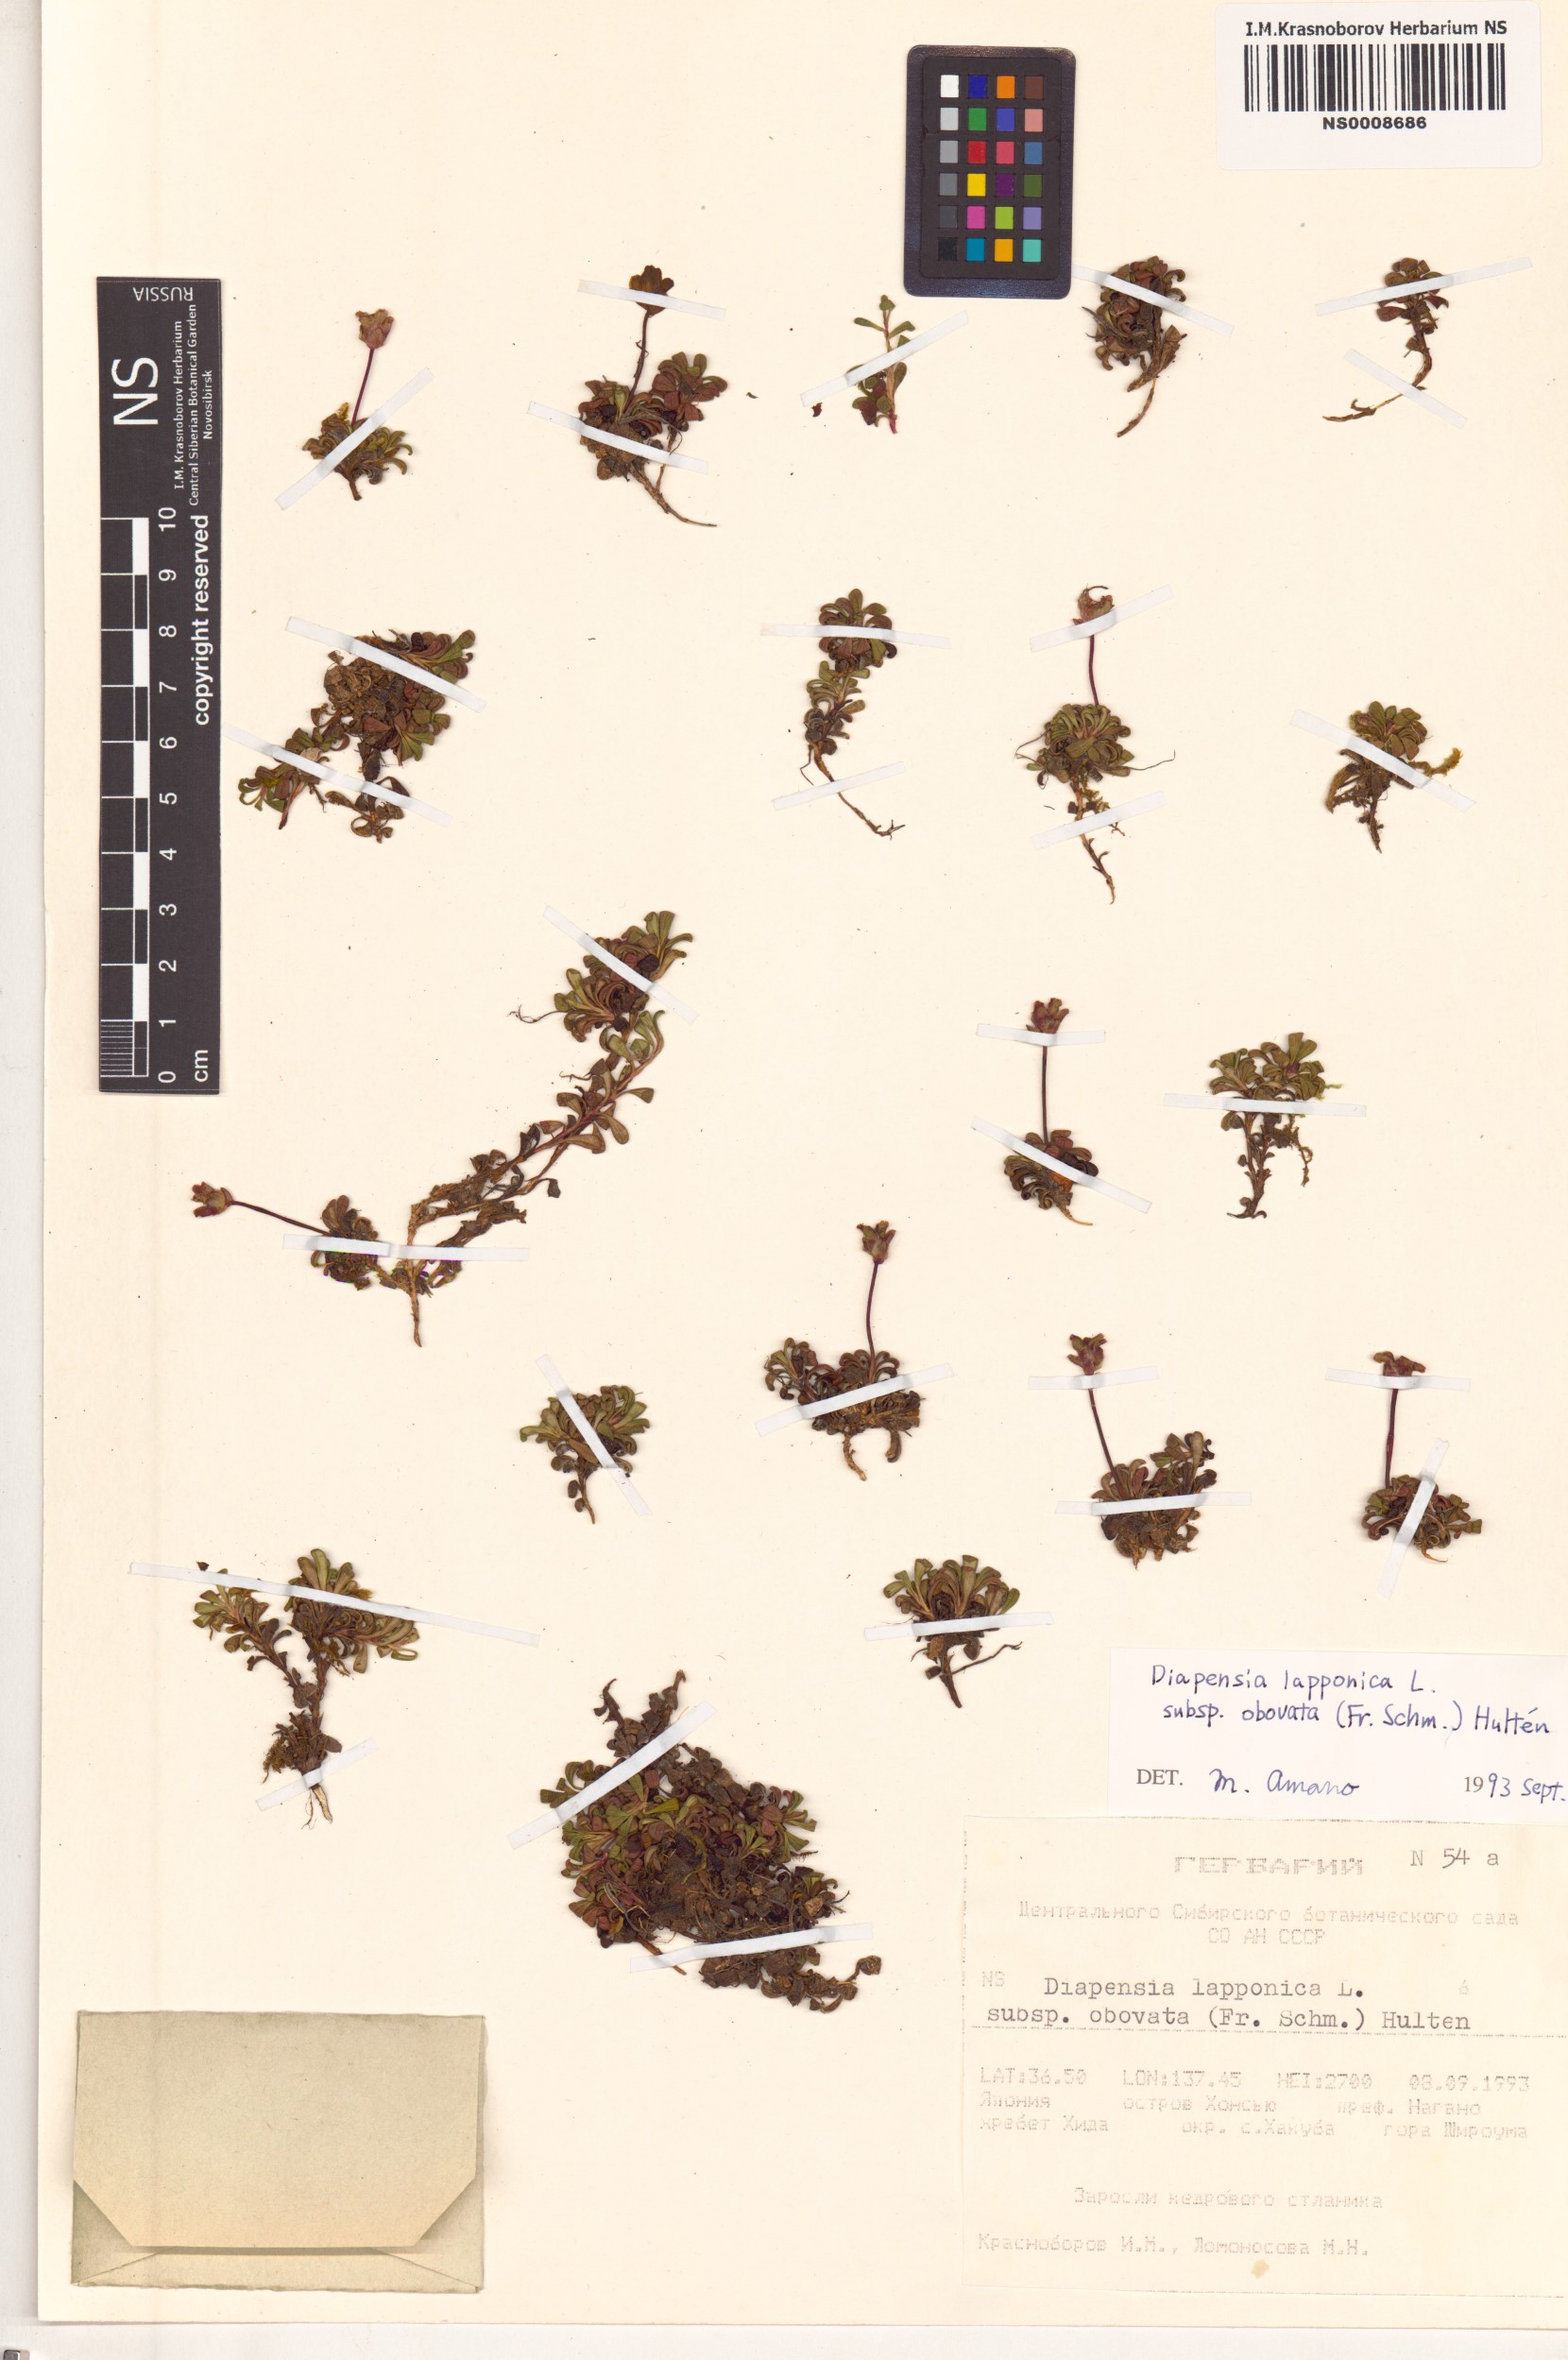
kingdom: Plantae
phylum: Tracheophyta
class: Magnoliopsida
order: Ericales
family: Diapensiaceae
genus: Diapensia
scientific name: Diapensia obovata
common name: Alaska diapensia
